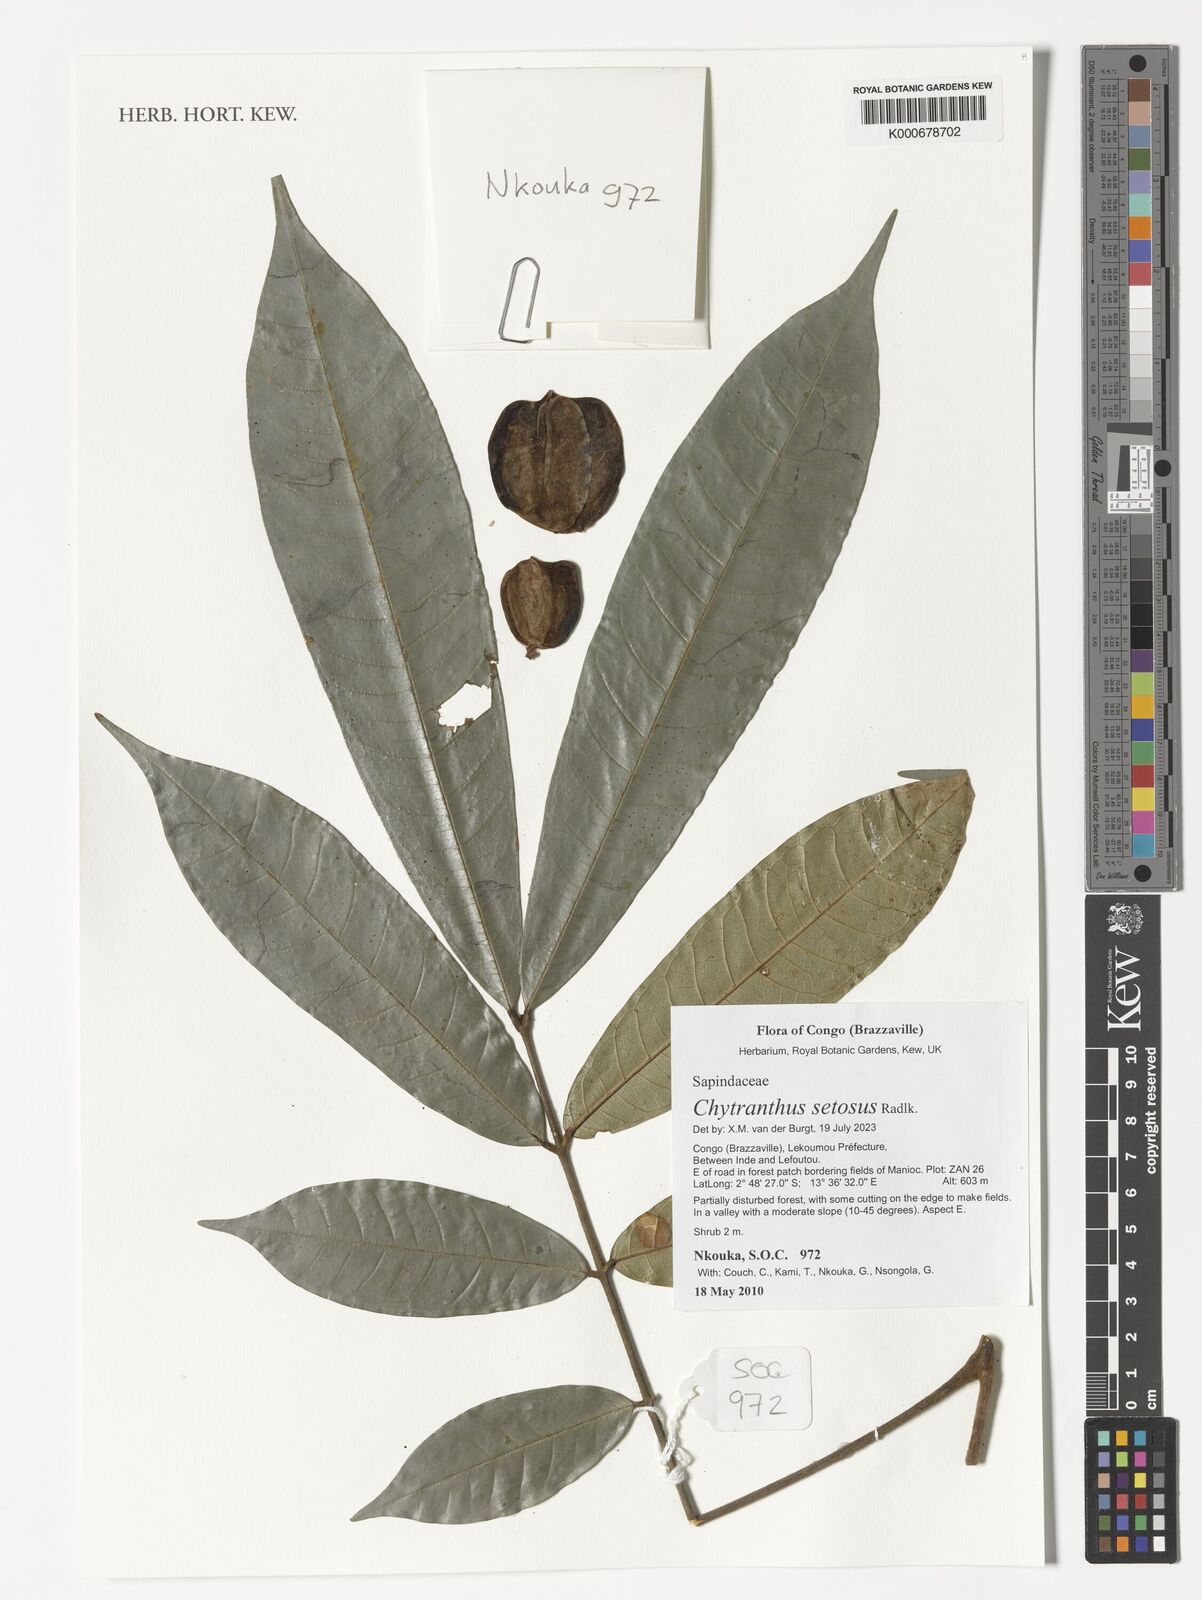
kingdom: Plantae
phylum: Tracheophyta
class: Magnoliopsida
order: Sapindales
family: Sapindaceae
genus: Chytranthus
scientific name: Chytranthus setosus
